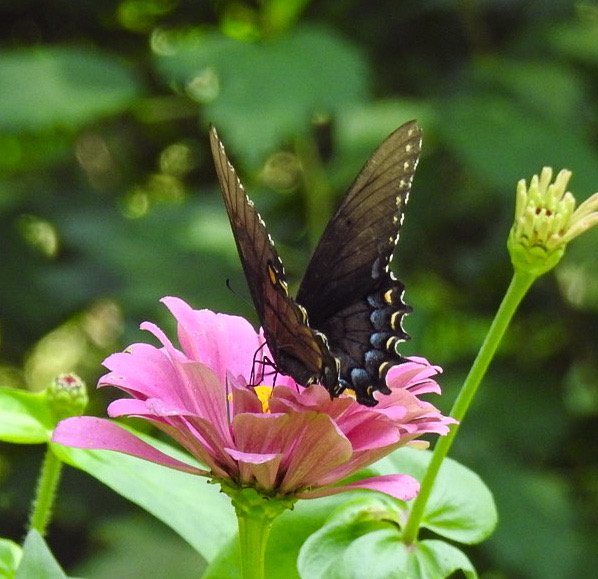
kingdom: Animalia
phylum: Arthropoda
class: Insecta
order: Lepidoptera
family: Papilionidae
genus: Pterourus
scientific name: Pterourus glaucus
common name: Eastern Tiger Swallowtail
